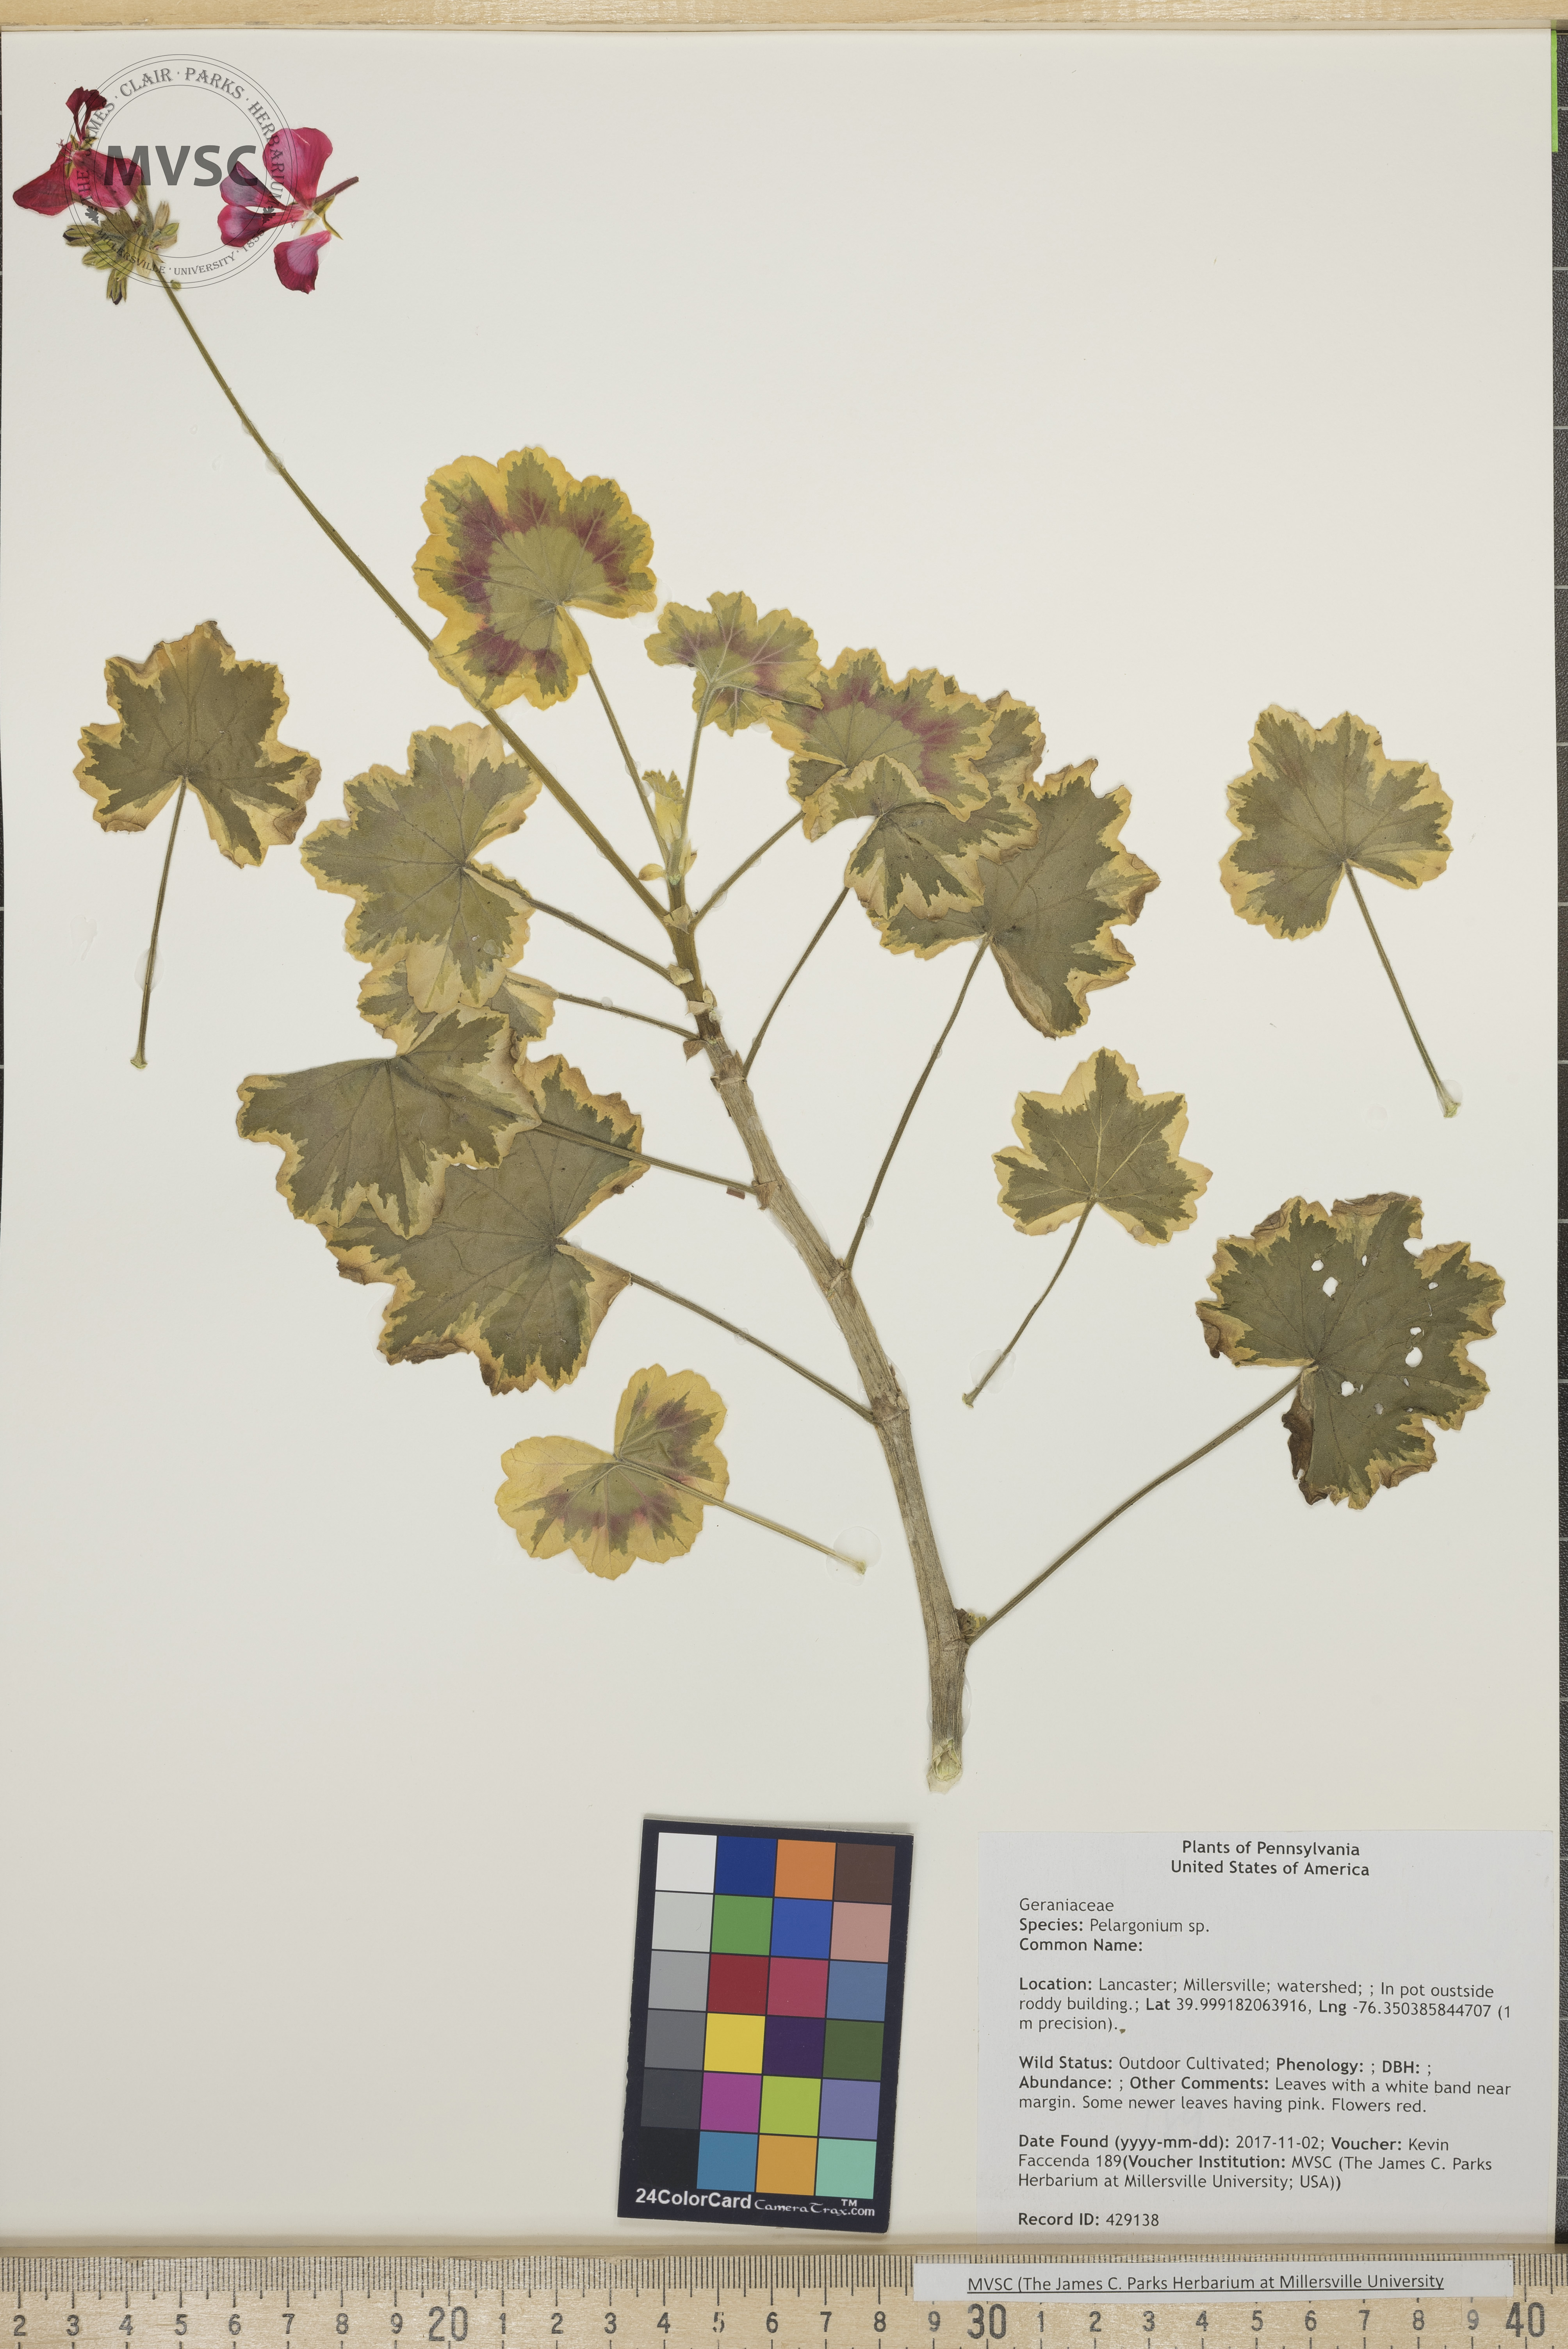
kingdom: Plantae
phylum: Tracheophyta
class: Magnoliopsida
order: Geraniales
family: Geraniaceae
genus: Pelargonium
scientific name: Pelargonium
